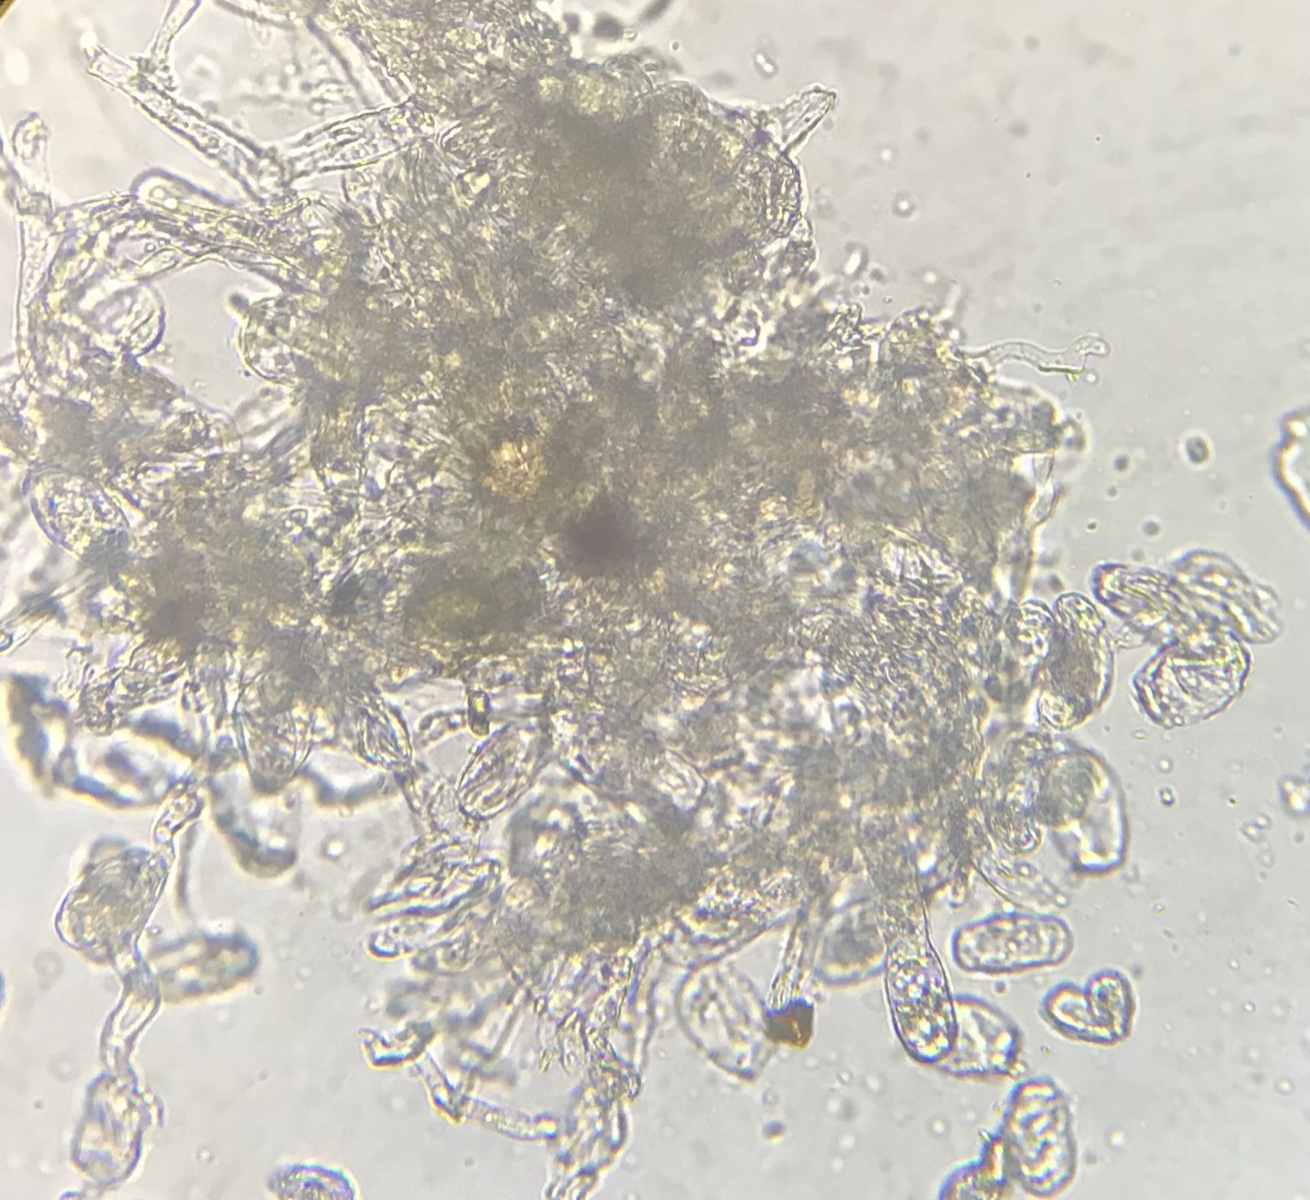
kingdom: Fungi
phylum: Ascomycota
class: Leotiomycetes
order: Helotiales
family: Erysiphaceae
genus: Podosphaera
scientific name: Podosphaera amelanchieris
